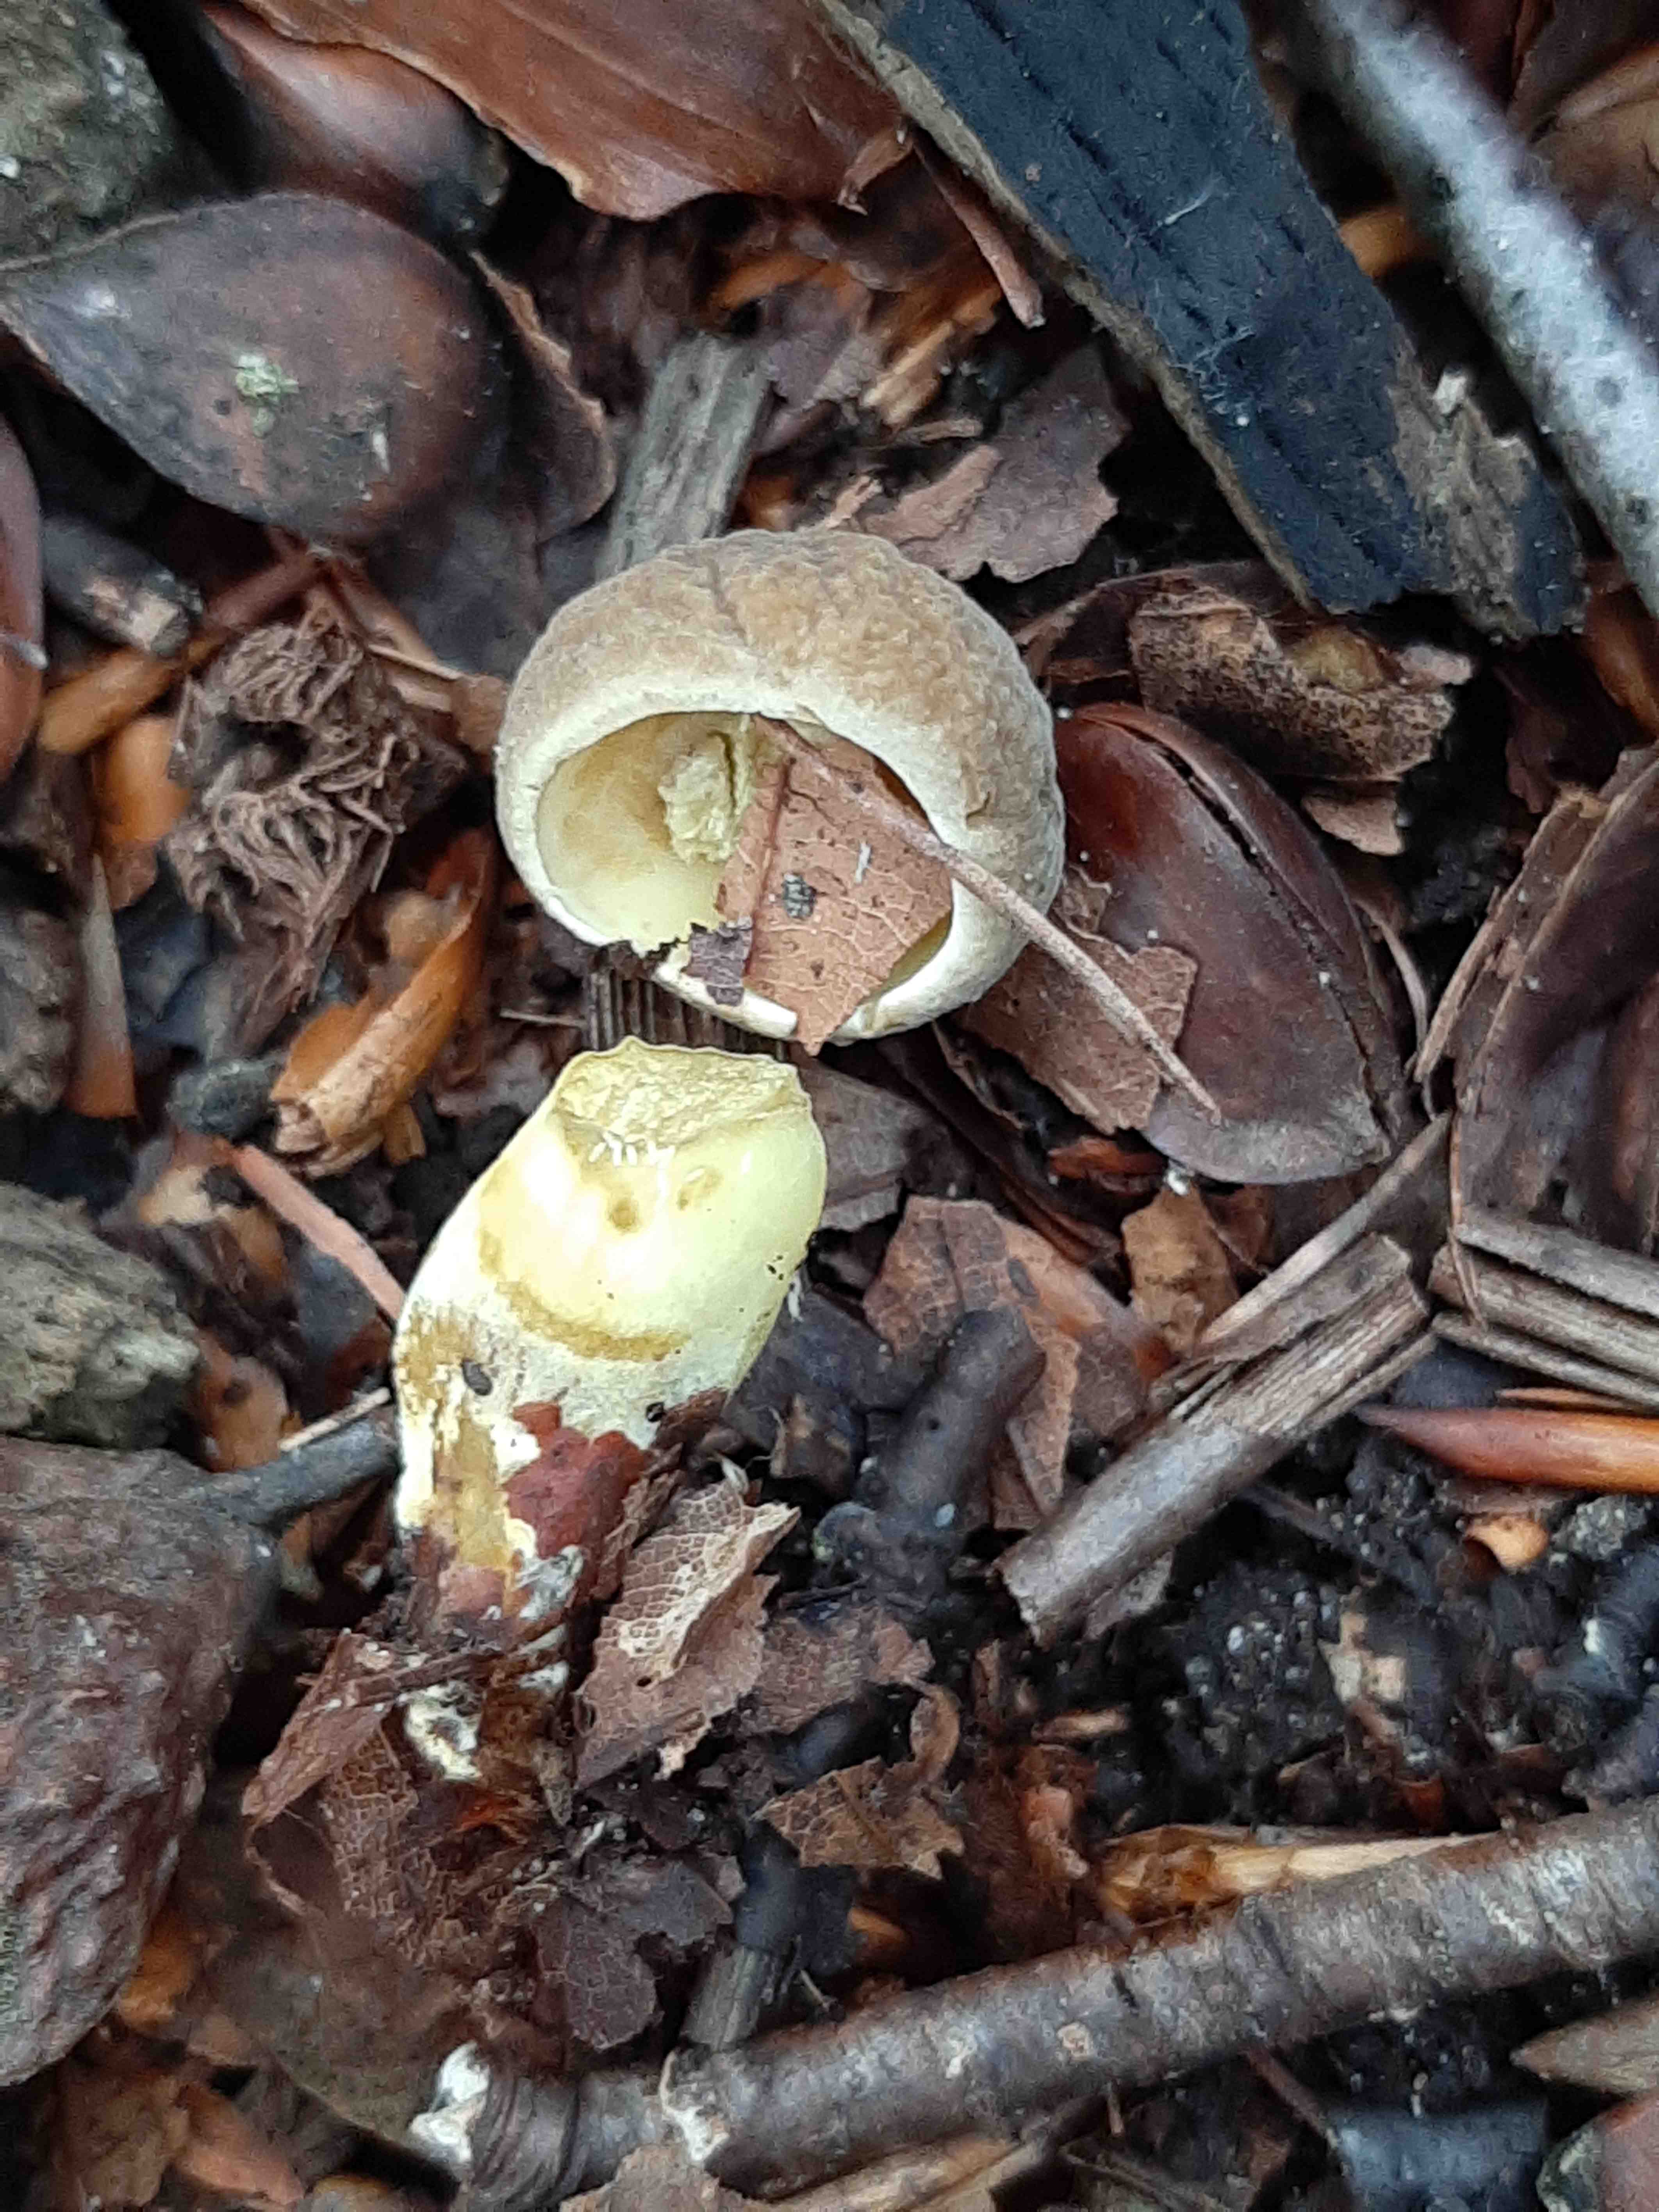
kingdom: Fungi
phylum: Basidiomycota
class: Agaricomycetes
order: Boletales
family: Boletaceae
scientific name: Boletaceae
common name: rørhatfamilien
